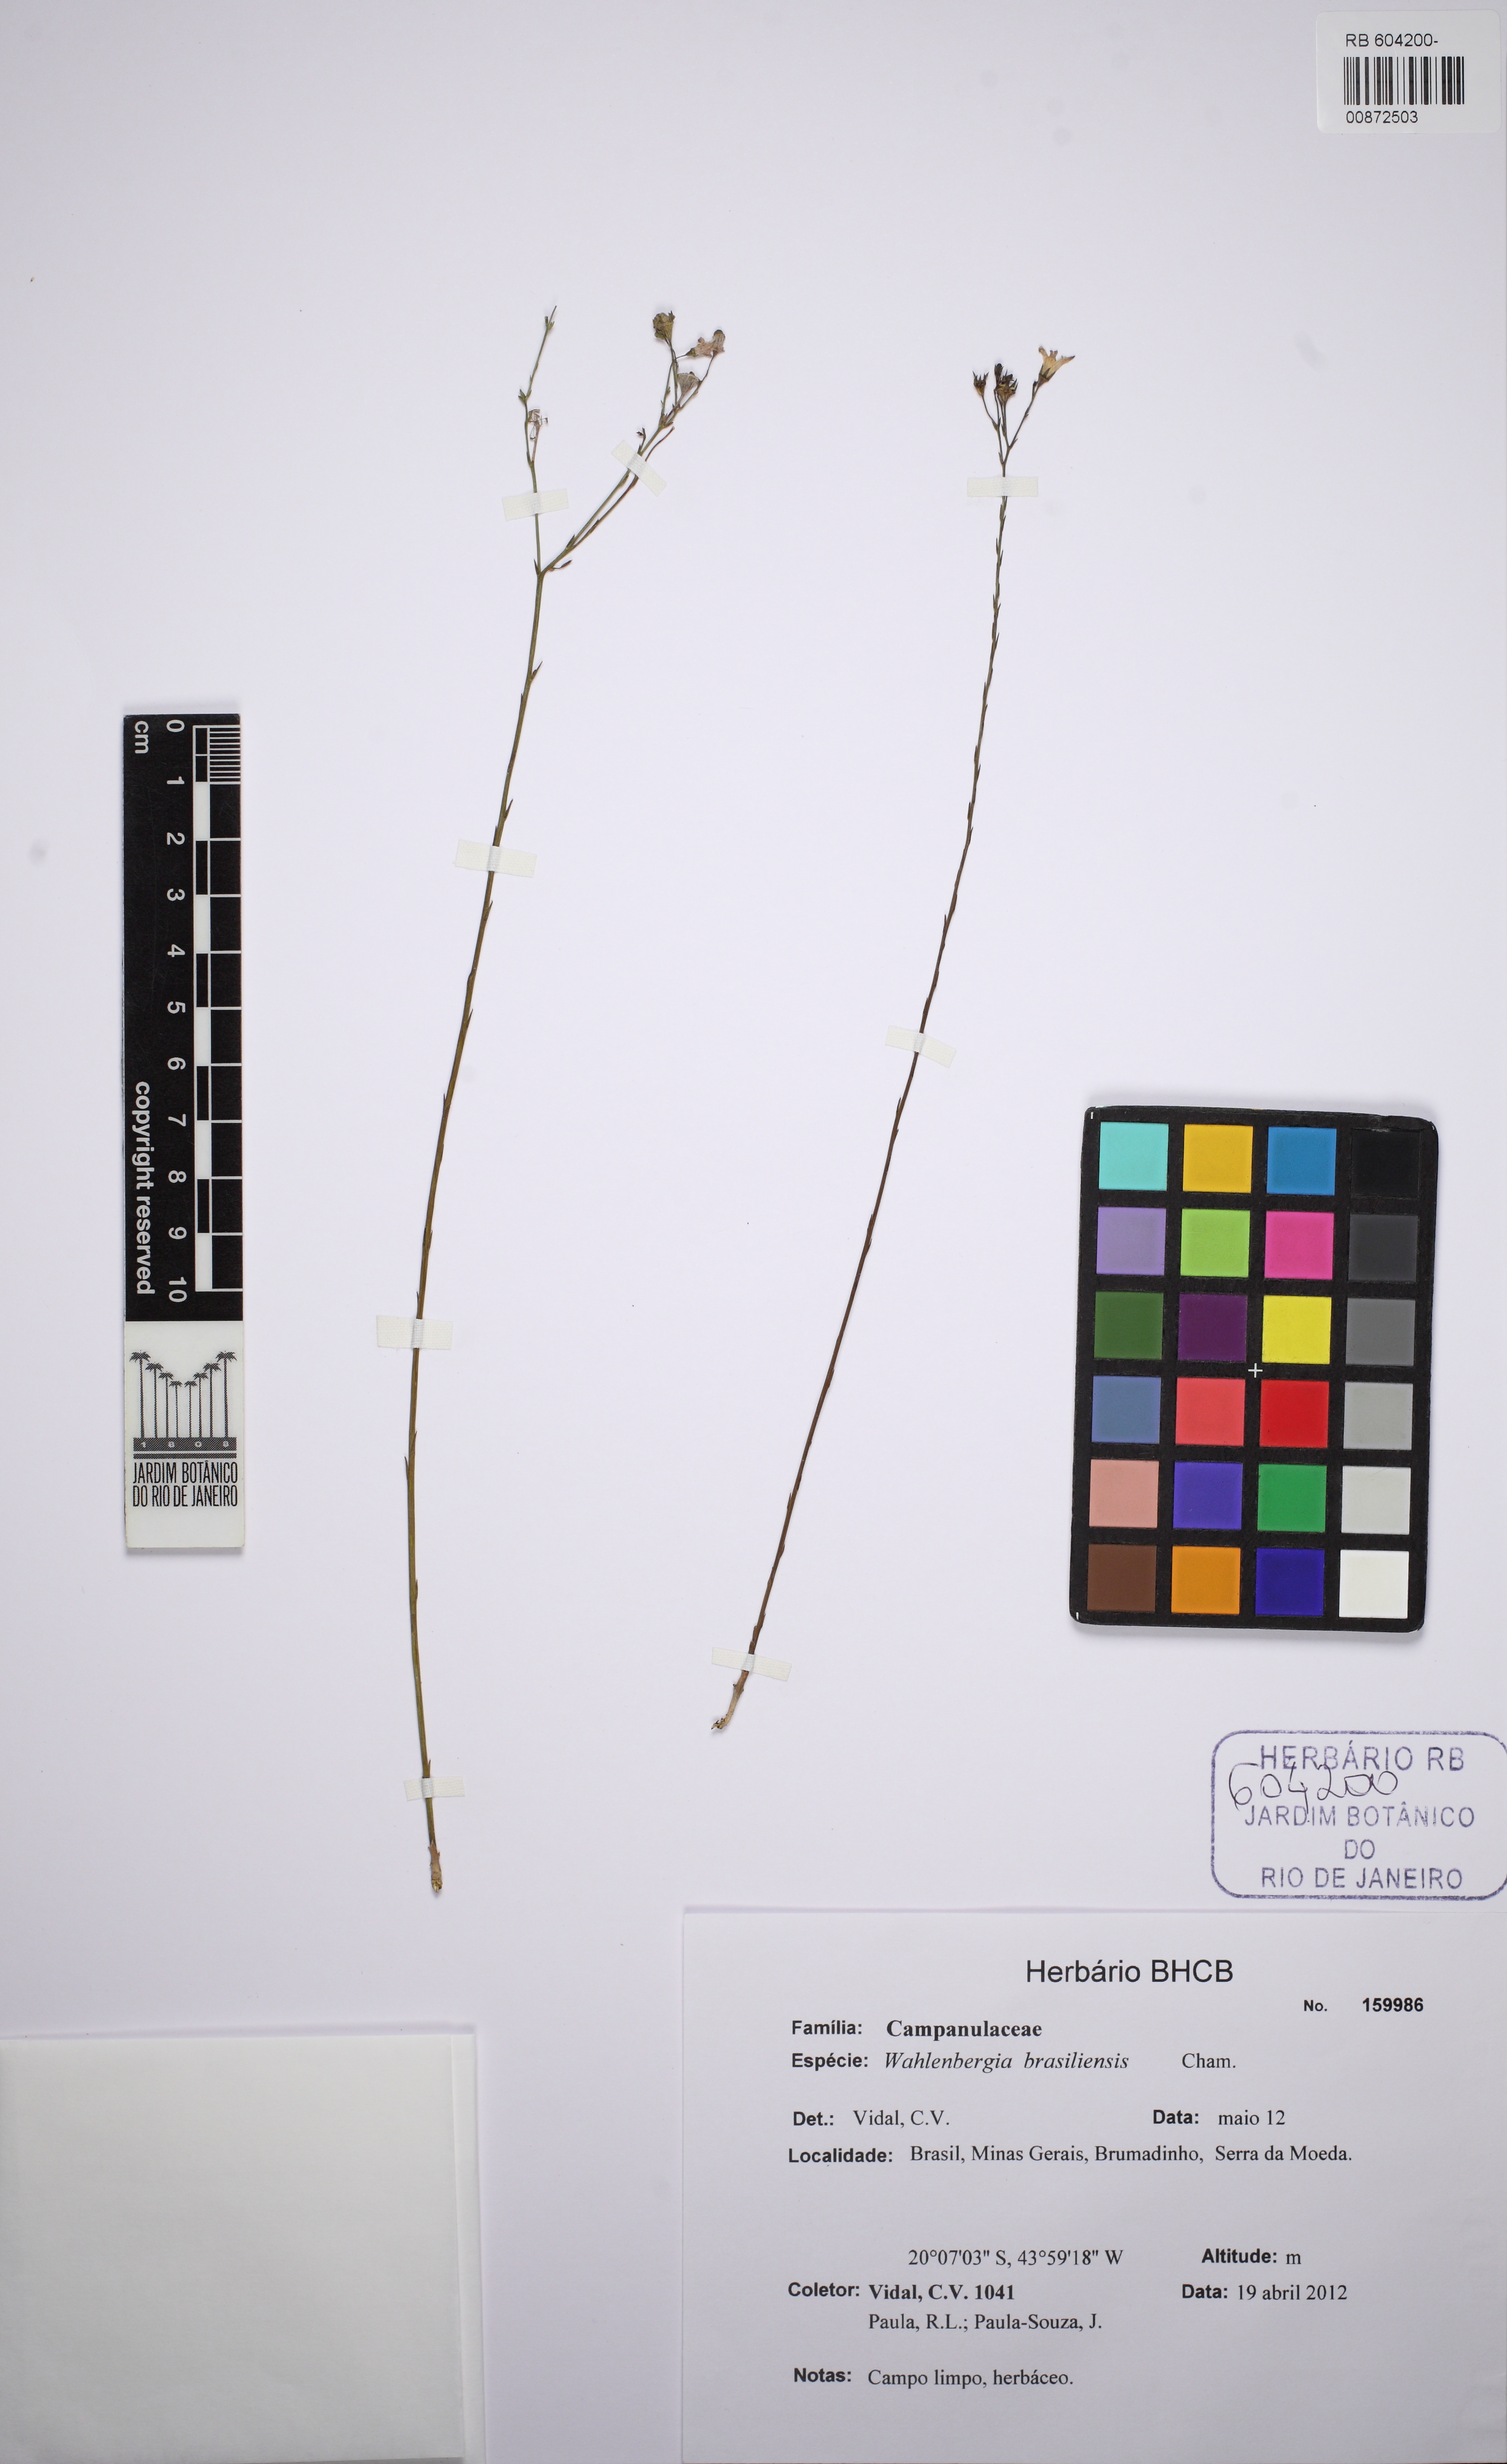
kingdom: Plantae
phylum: Tracheophyta
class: Magnoliopsida
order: Asterales
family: Campanulaceae
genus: Wahlenbergia
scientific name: Wahlenbergia brasiliensis
